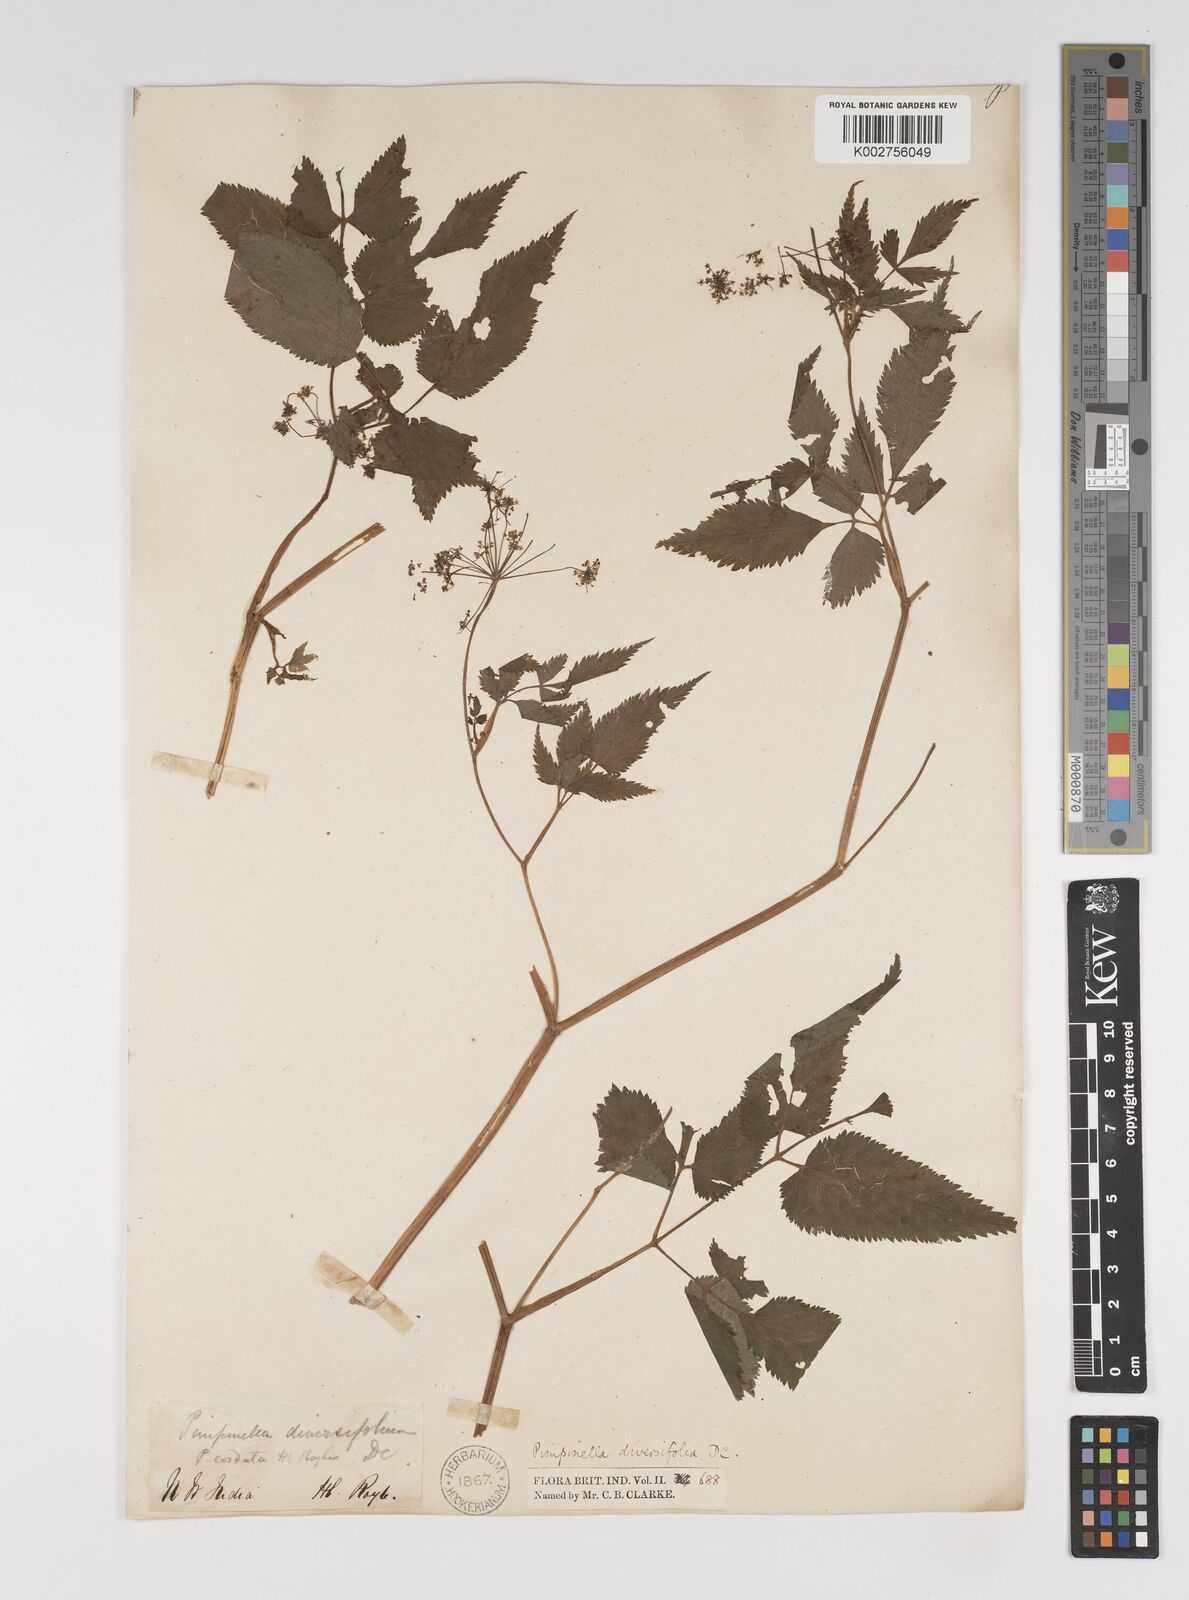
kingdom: Plantae
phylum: Tracheophyta
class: Magnoliopsida
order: Apiales
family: Apiaceae
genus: Pimpinella
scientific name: Pimpinella diversifolia
